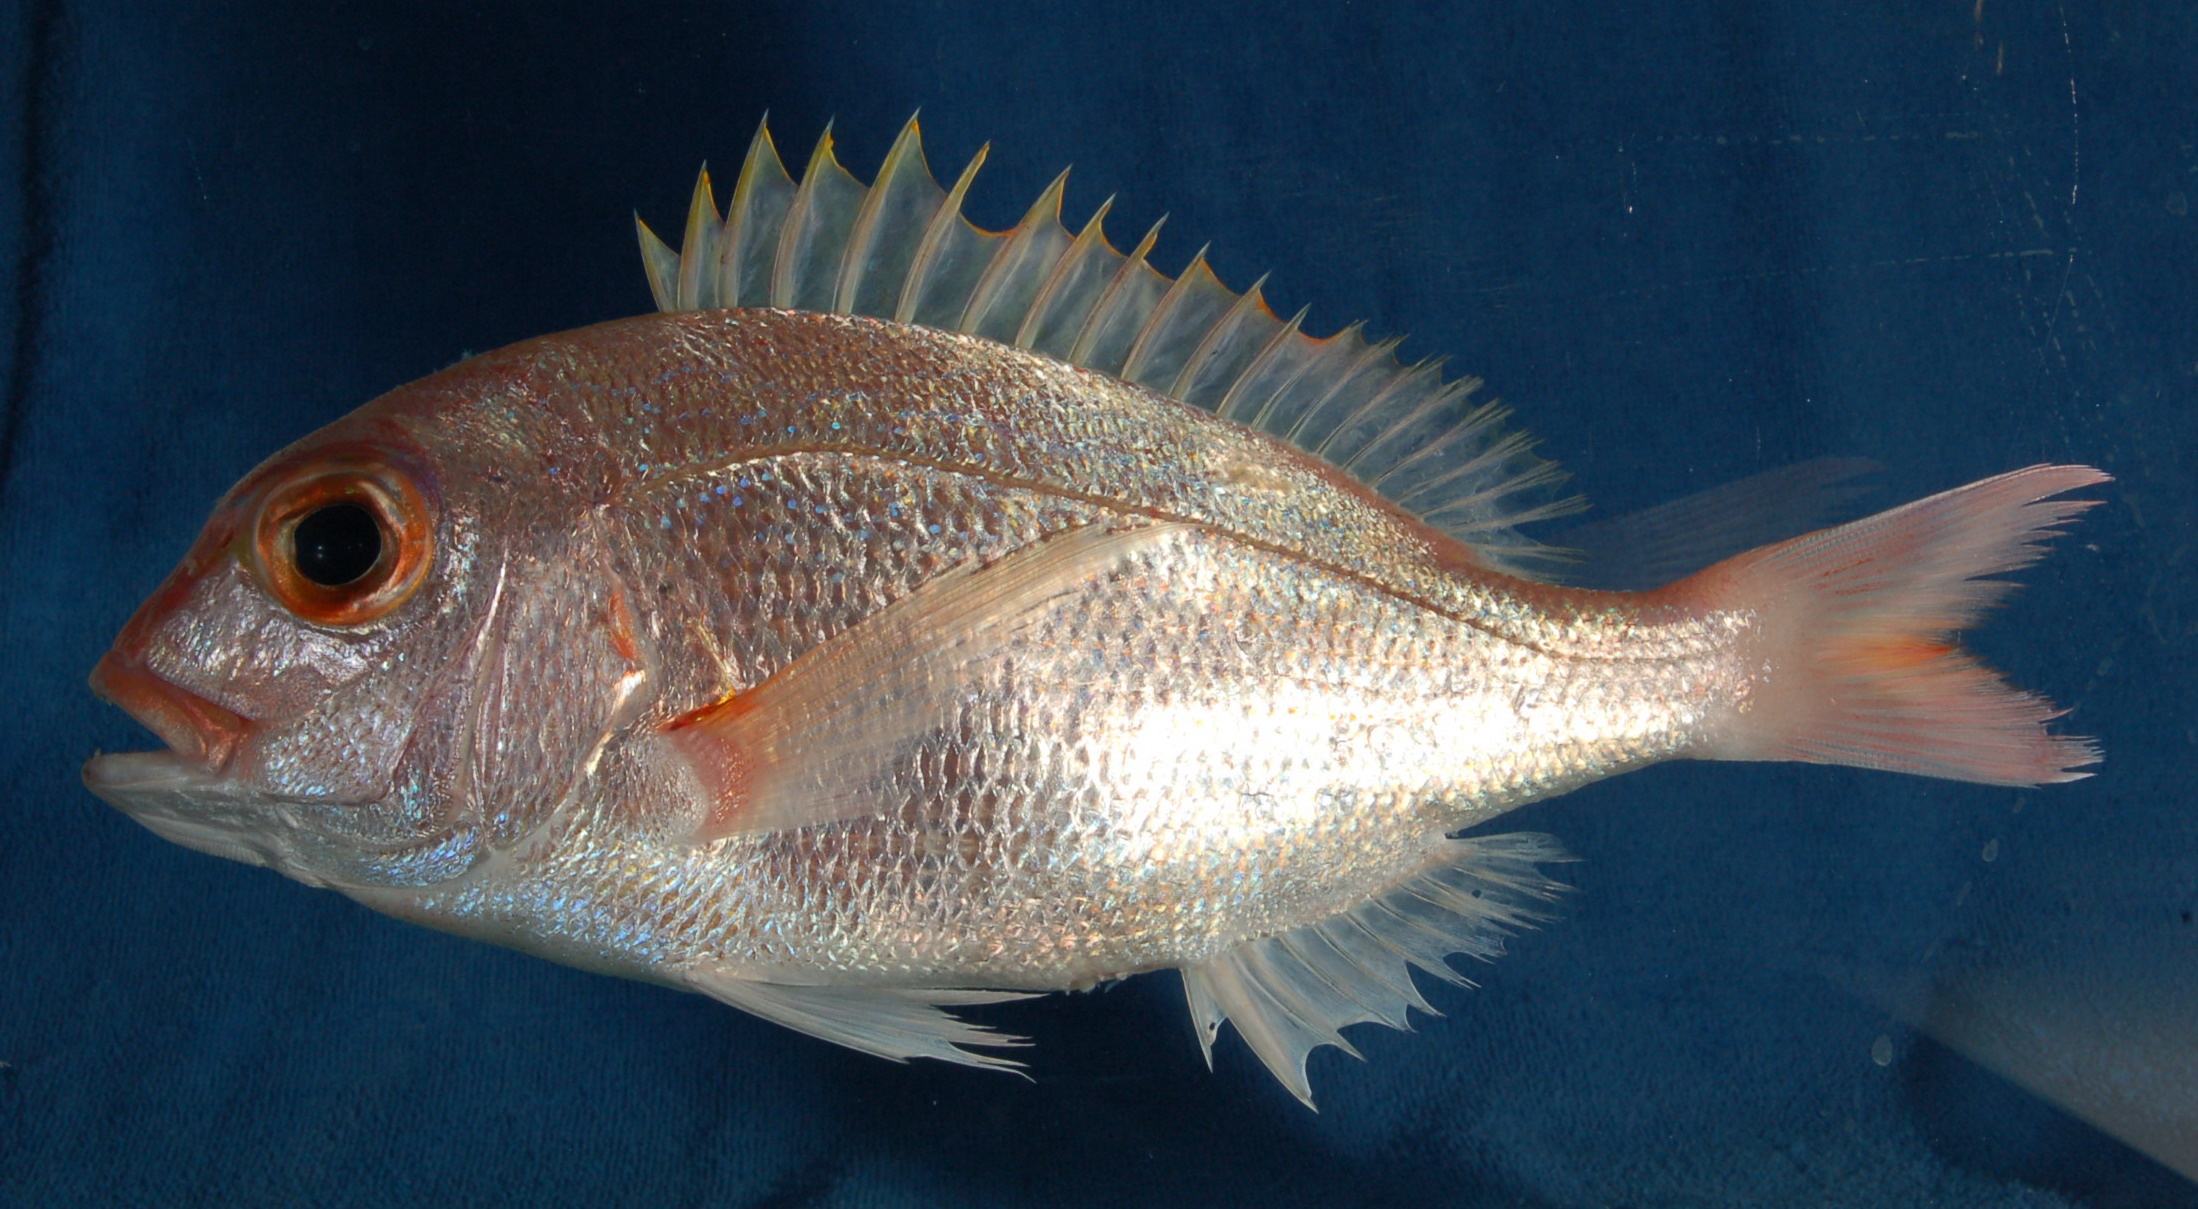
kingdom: Animalia
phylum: Chordata
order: Perciformes
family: Sparidae
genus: Polysteganus
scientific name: Polysteganus coeruleopunctatus
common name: Blueskin
